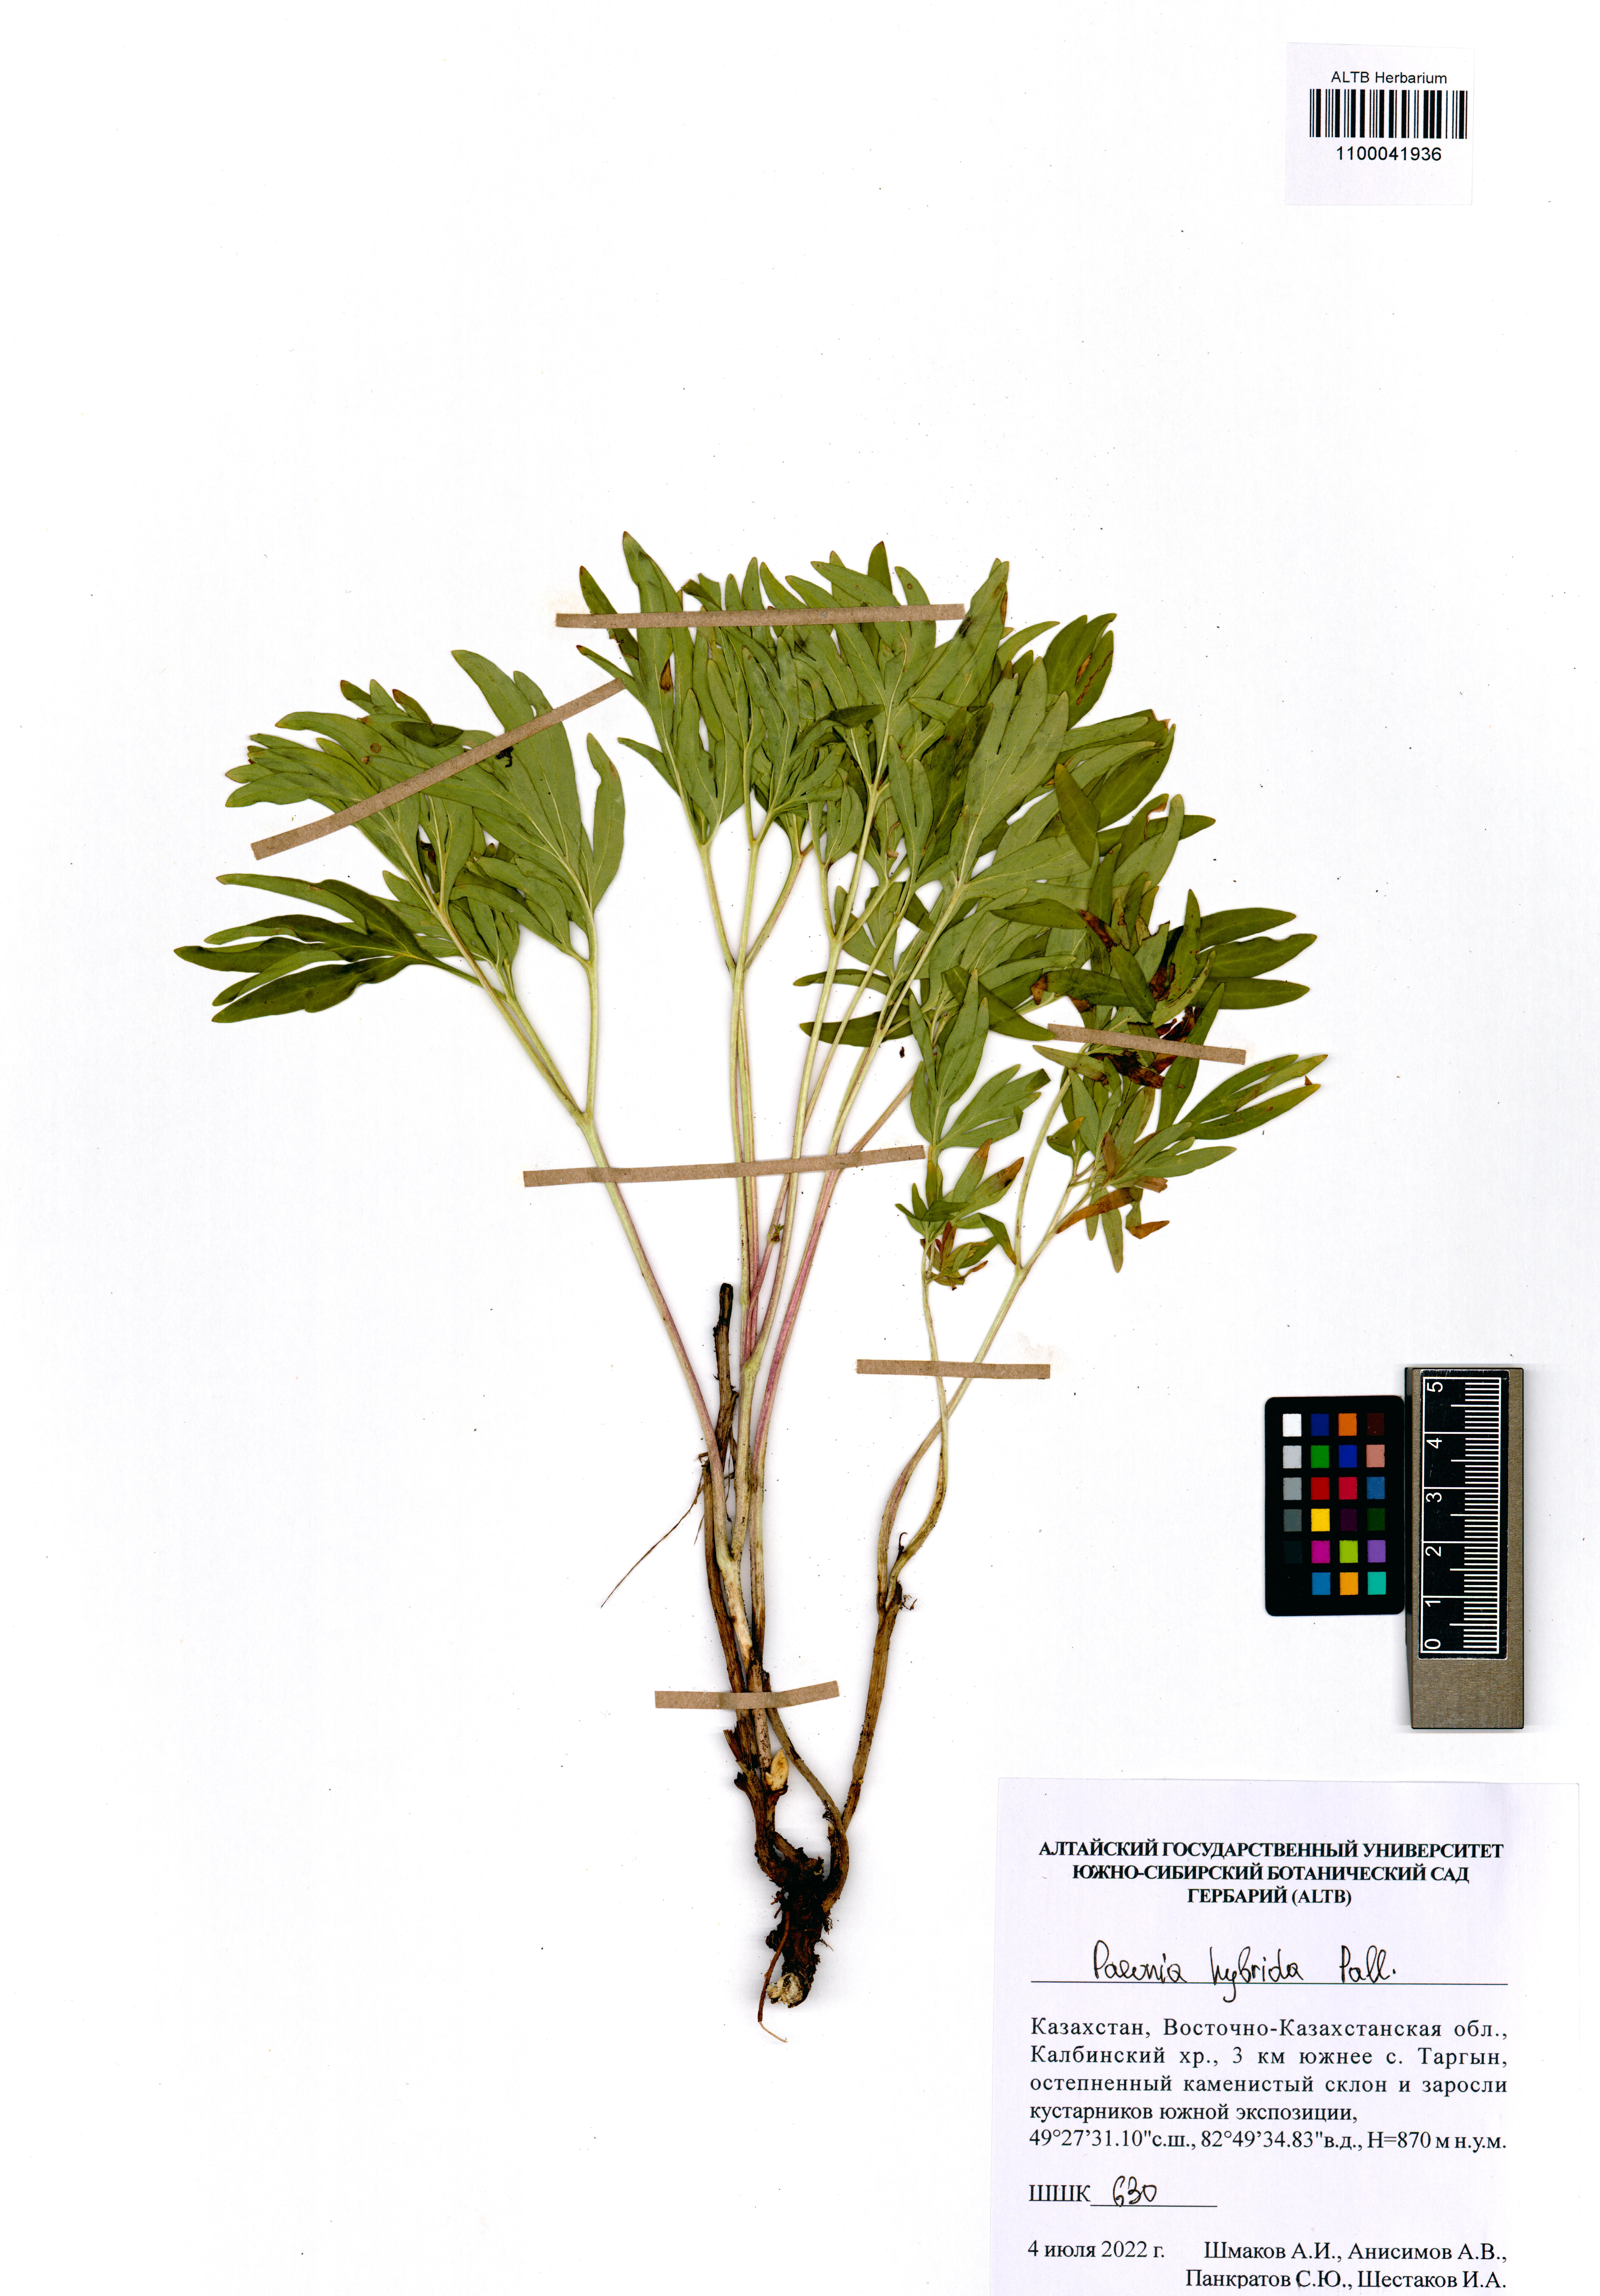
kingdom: Plantae
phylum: Tracheophyta
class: Magnoliopsida
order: Saxifragales
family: Paeoniaceae
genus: Paeonia
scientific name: Paeonia
